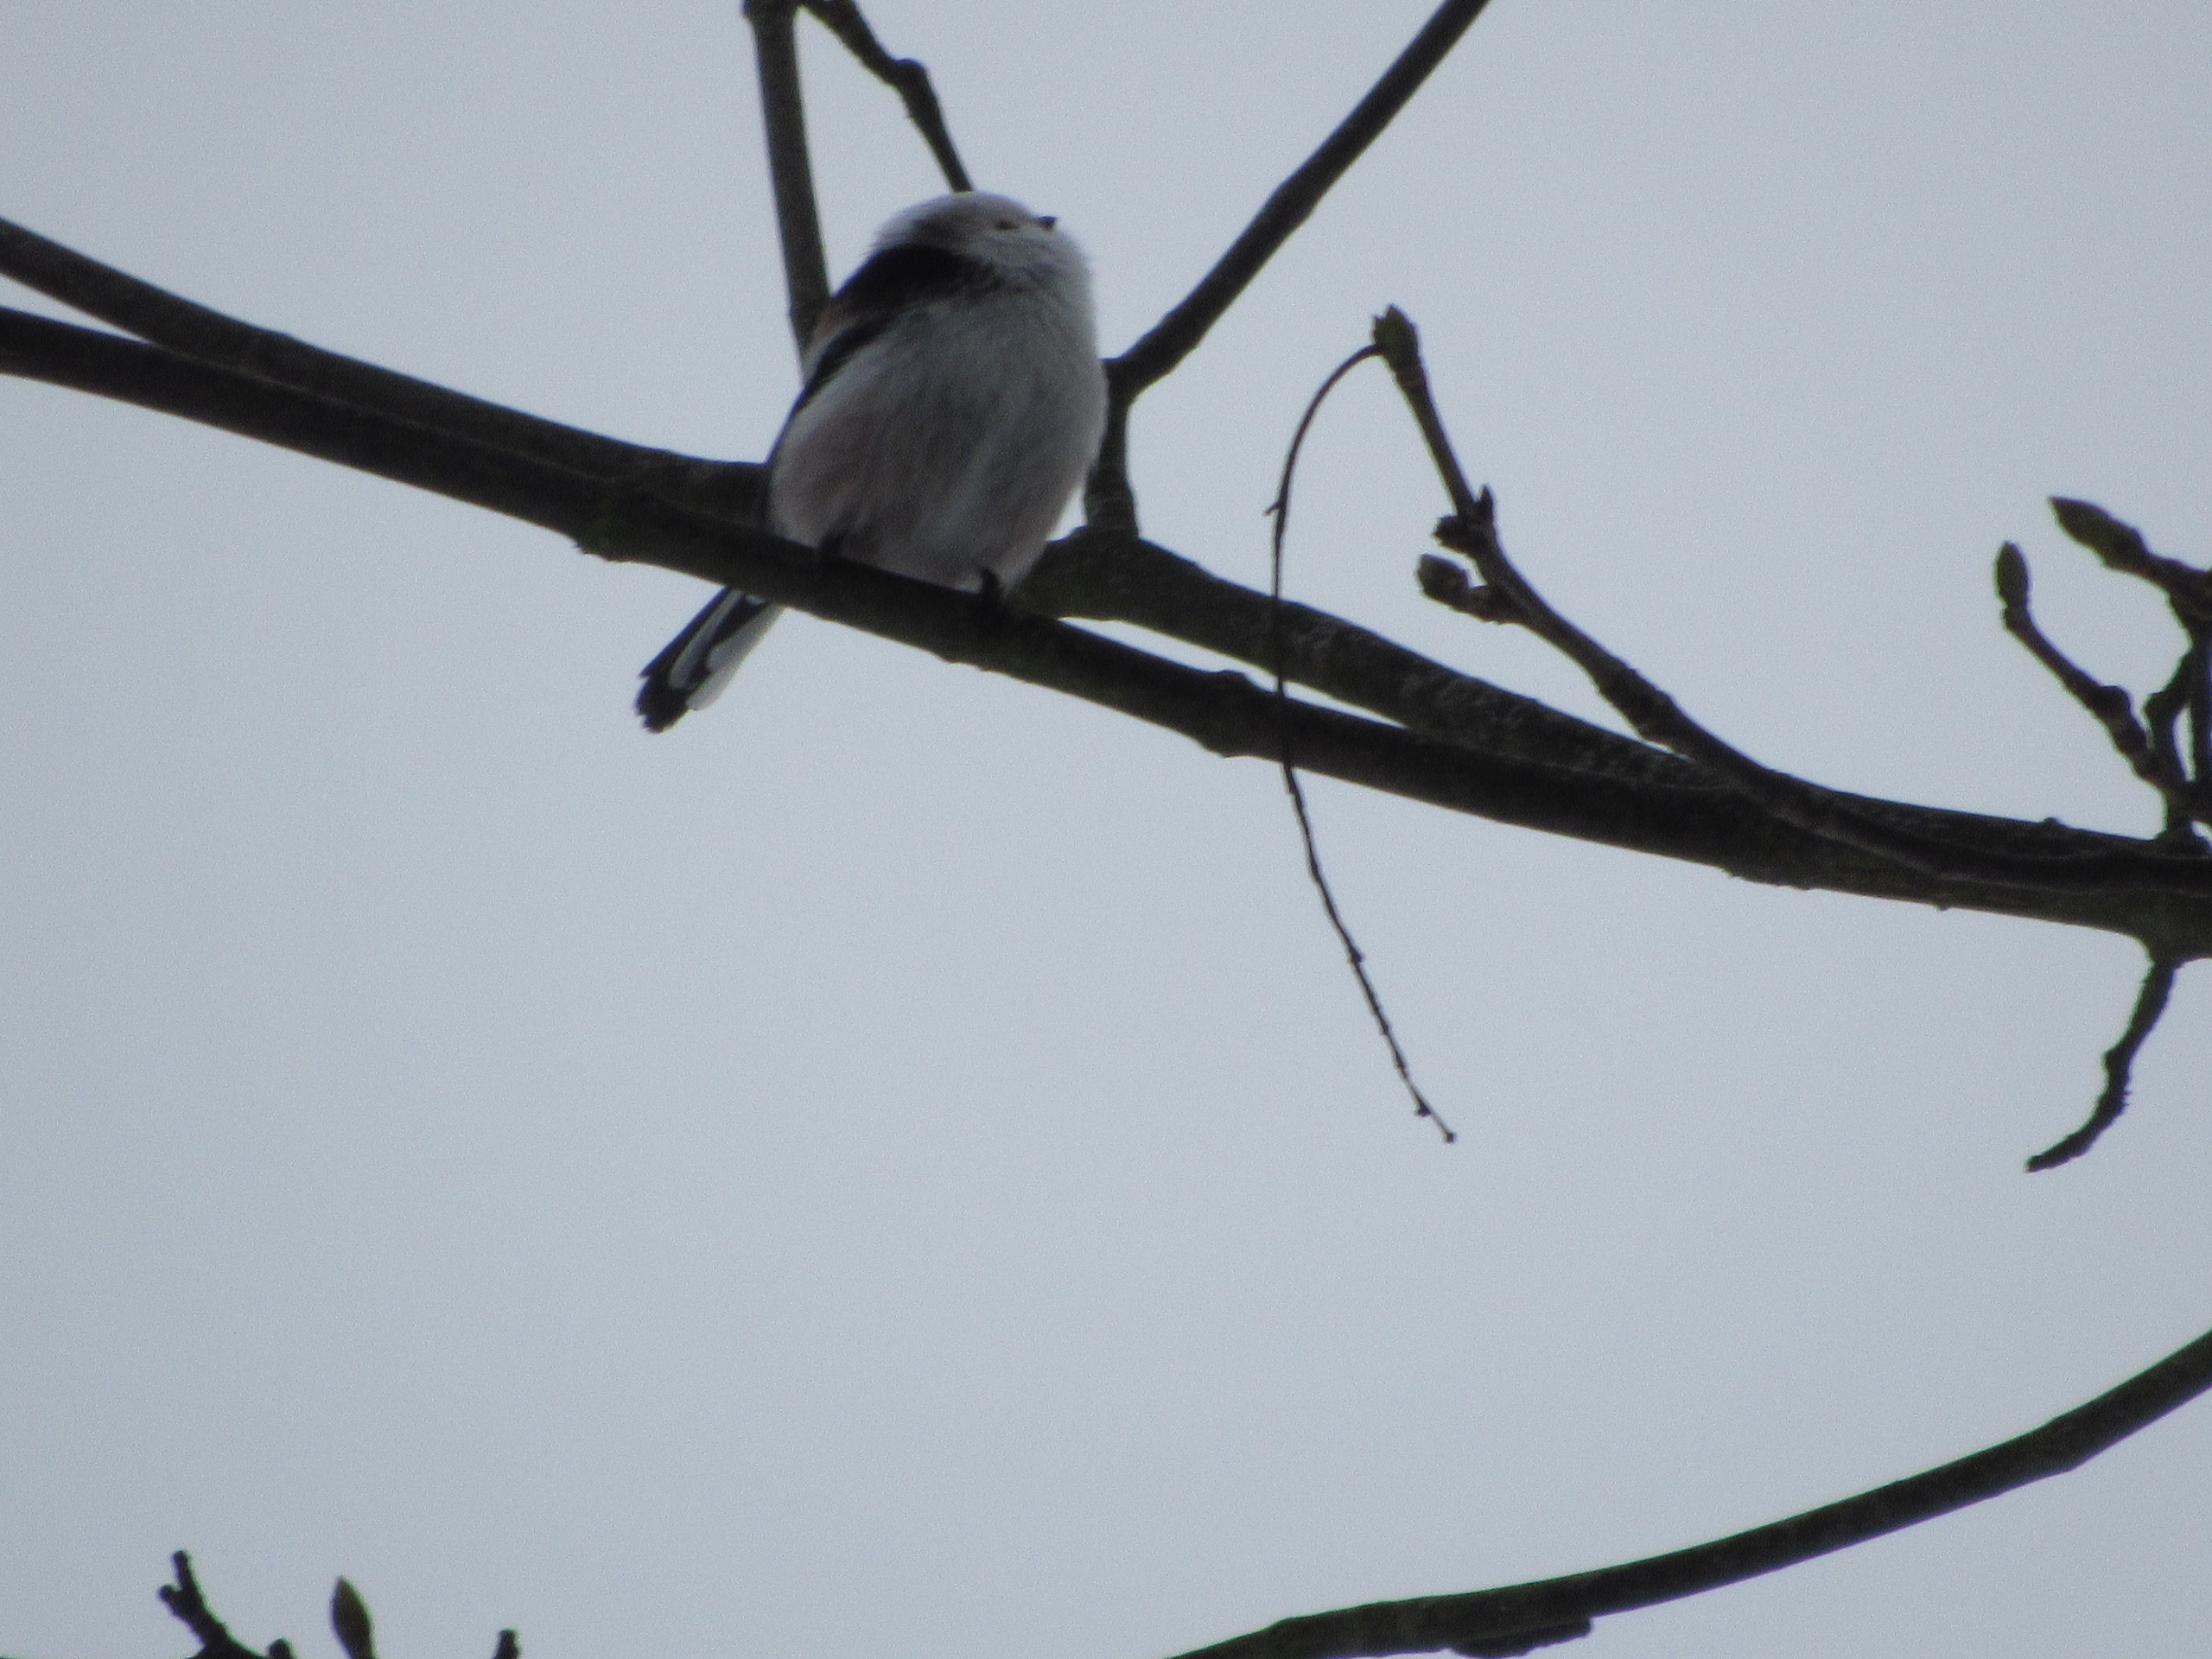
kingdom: Animalia
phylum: Chordata
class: Aves
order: Passeriformes
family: Aegithalidae
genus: Aegithalos
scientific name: Aegithalos caudatus
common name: Halemejse
